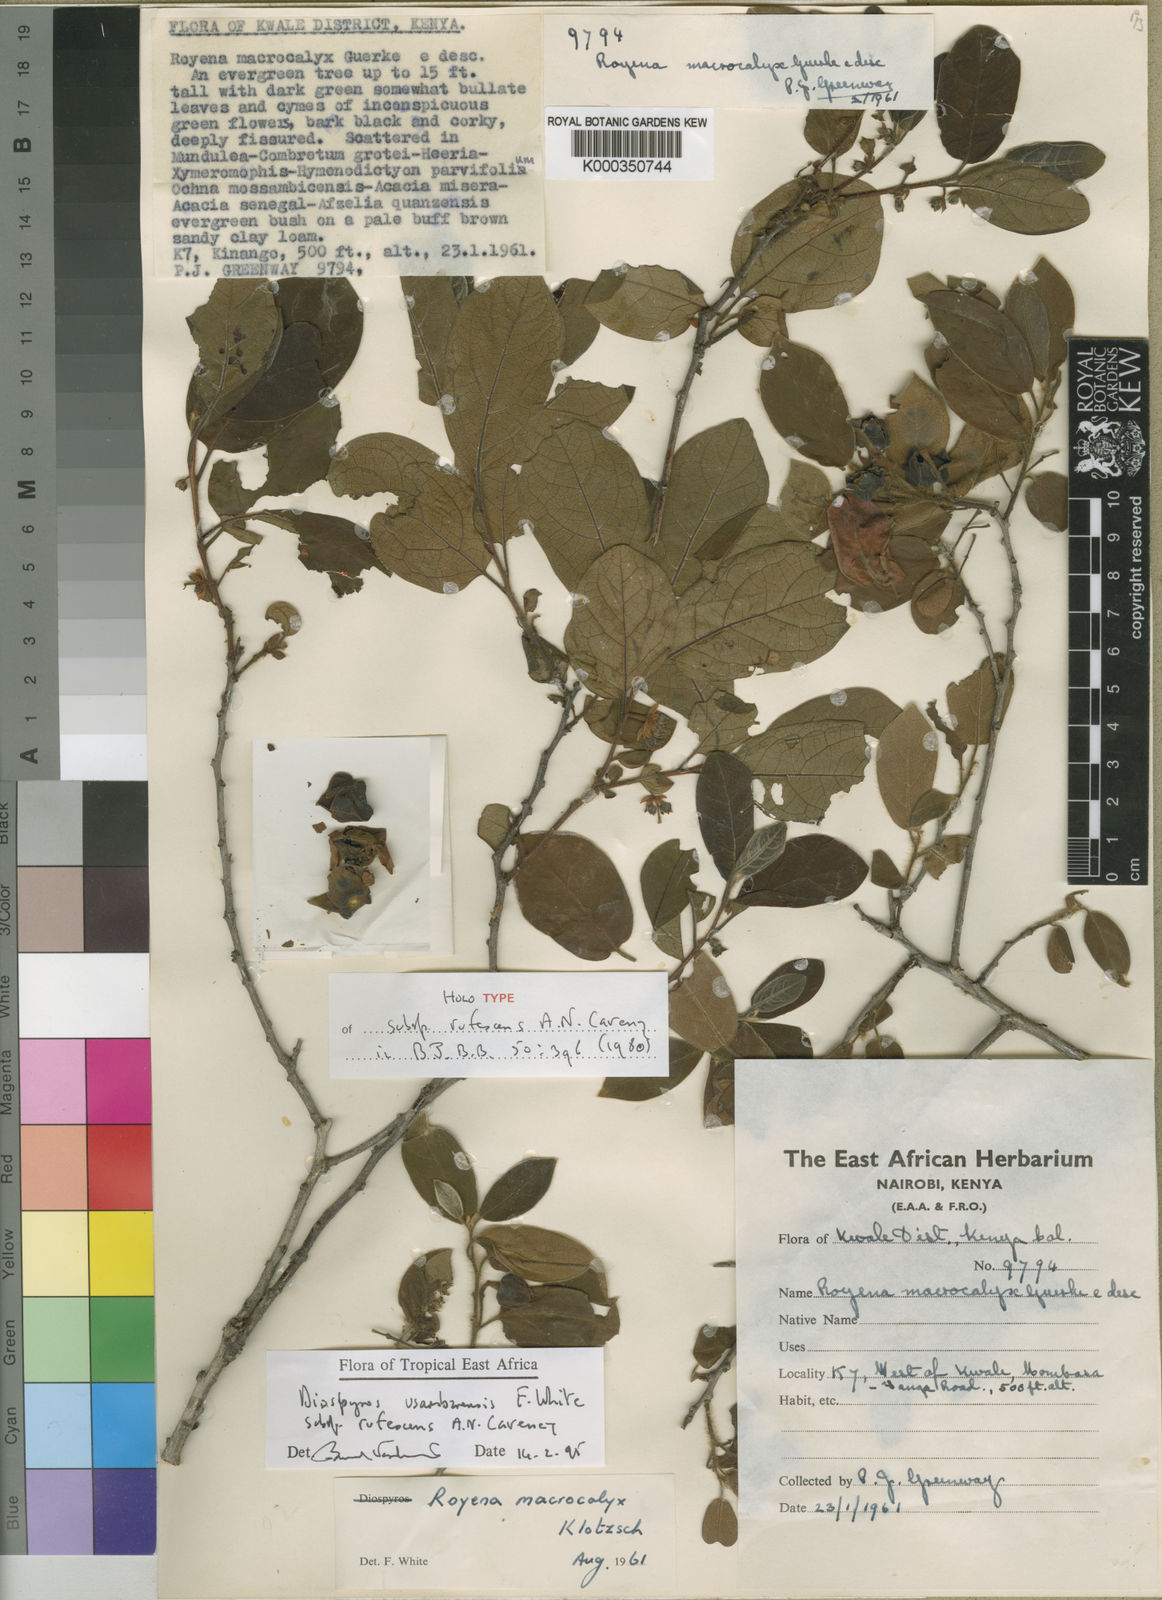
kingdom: Plantae
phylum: Tracheophyta
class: Magnoliopsida
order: Ericales
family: Ebenaceae
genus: Diospyros
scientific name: Diospyros loureiroana
